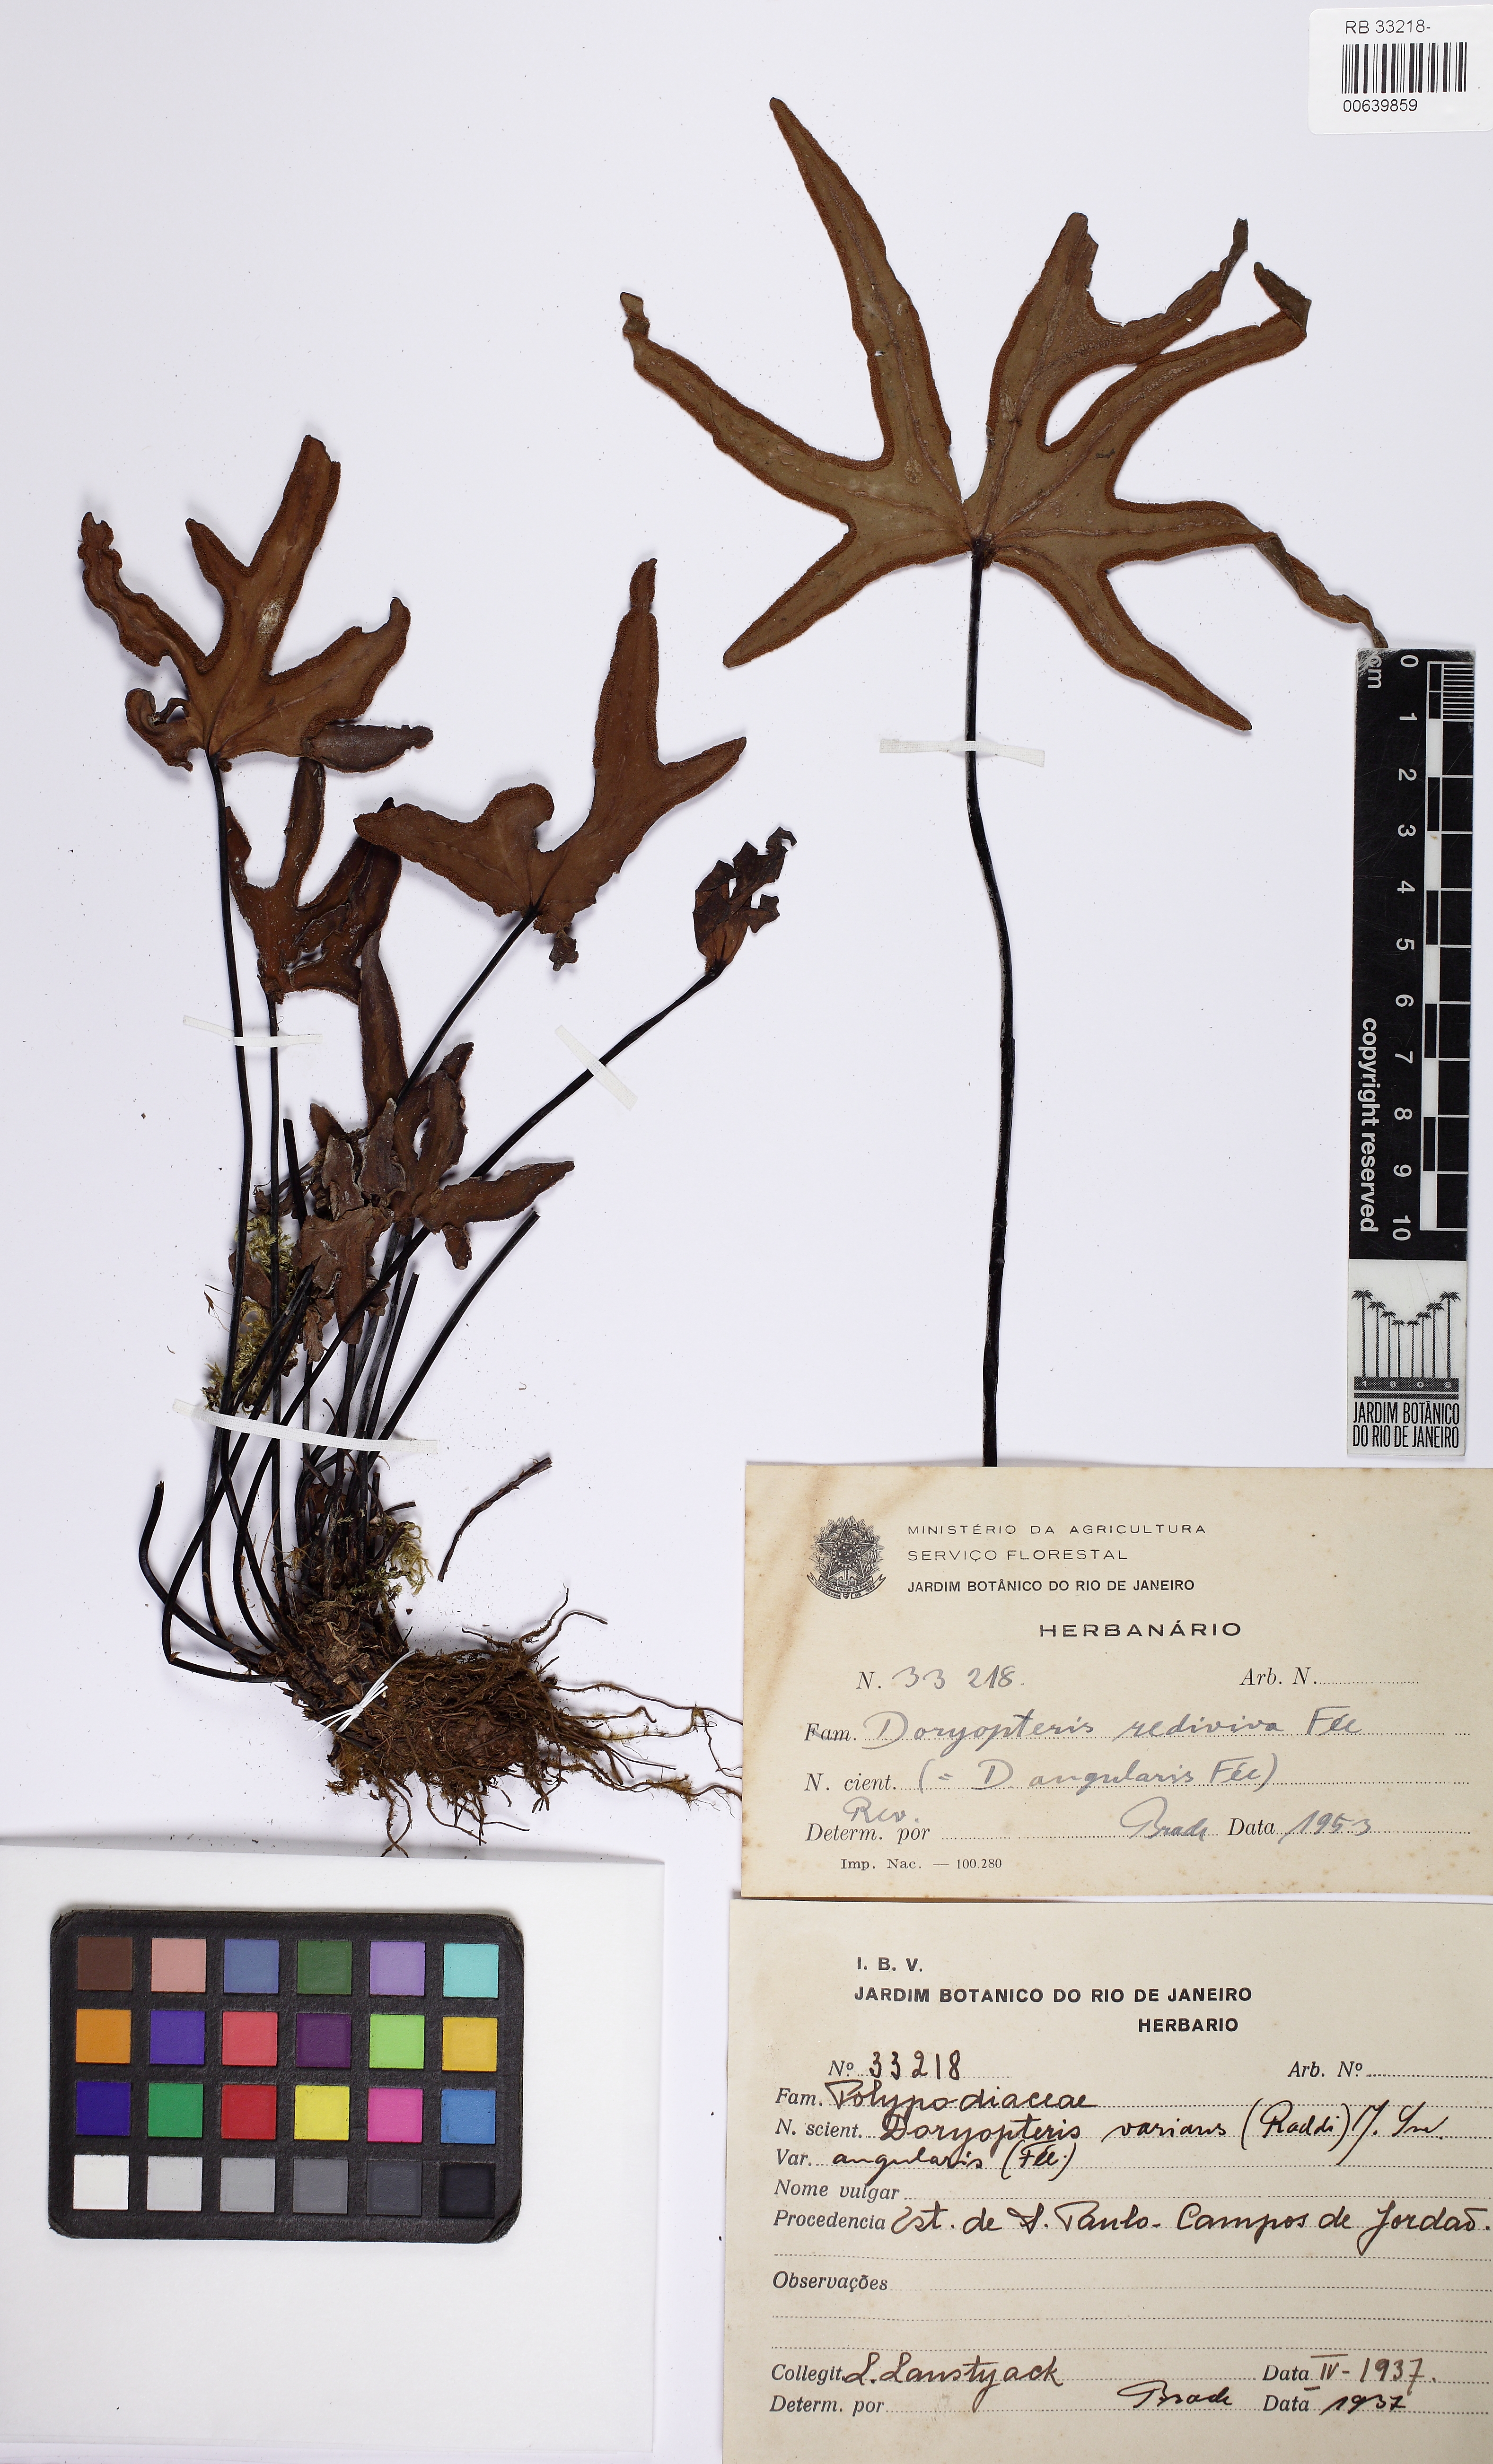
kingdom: Plantae
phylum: Tracheophyta
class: Polypodiopsida
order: Polypodiales
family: Pteridaceae
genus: Doryopteris
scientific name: Doryopteris rediviva
